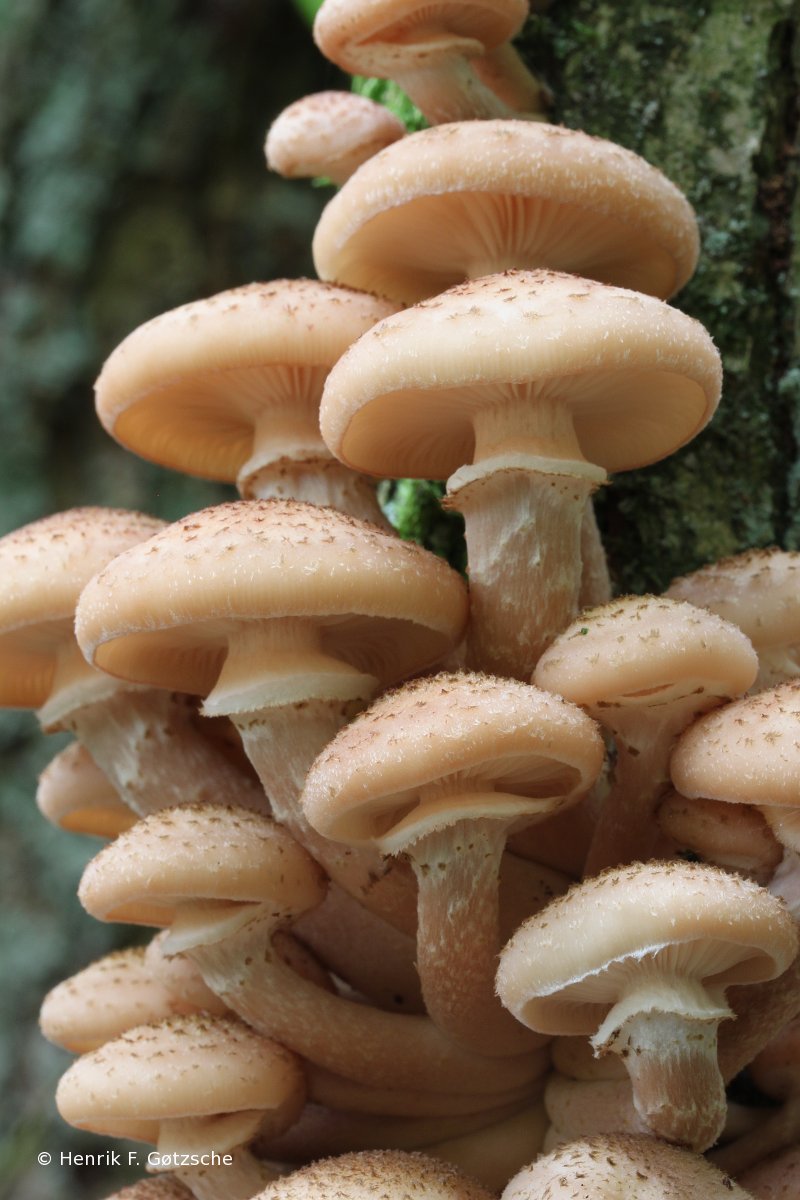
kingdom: Fungi
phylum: Basidiomycota
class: Agaricomycetes
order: Agaricales
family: Physalacriaceae
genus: Armillaria
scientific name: Armillaria ostoyae
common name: mørk honningsvamp
